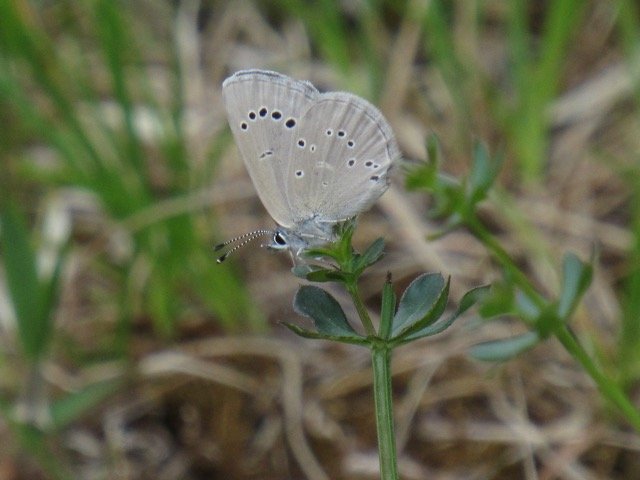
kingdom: Animalia
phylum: Arthropoda
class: Insecta
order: Lepidoptera
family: Lycaenidae
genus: Glaucopsyche
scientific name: Glaucopsyche lygdamus
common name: Silvery Blue
